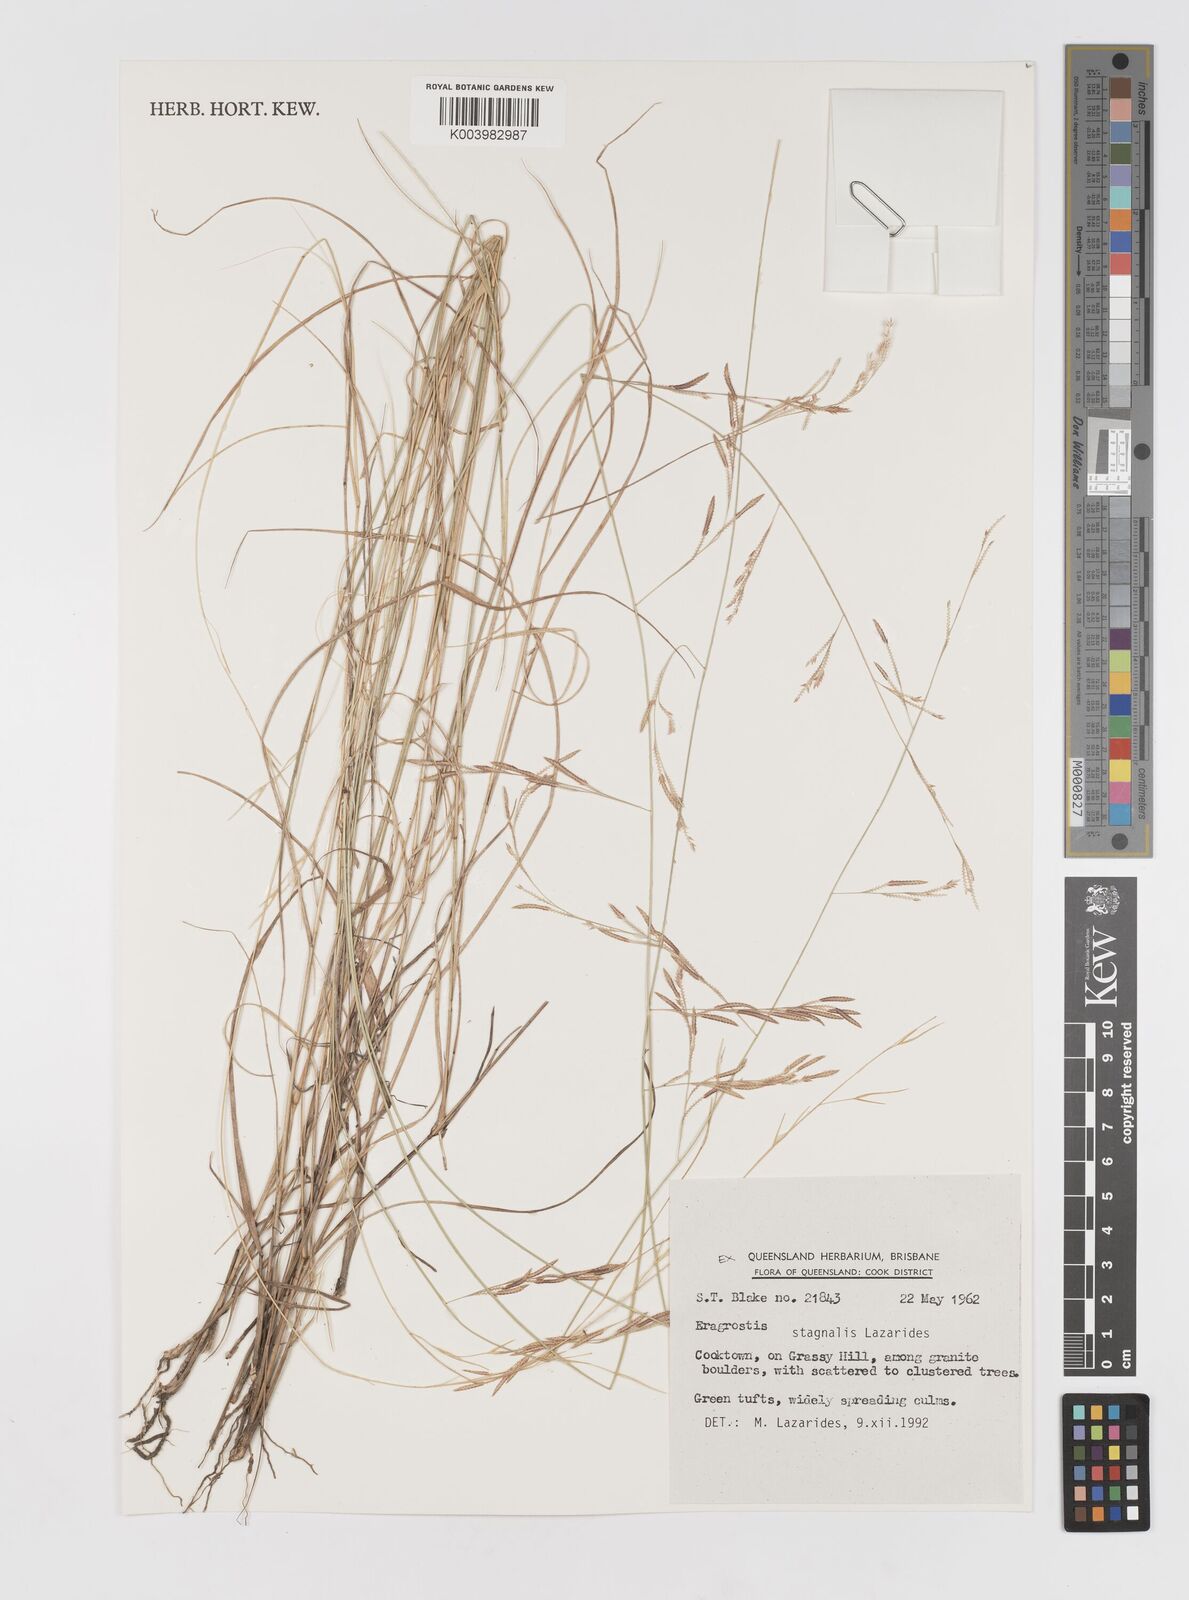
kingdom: Plantae
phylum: Tracheophyta
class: Liliopsida
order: Poales
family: Poaceae
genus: Eragrostis
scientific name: Eragrostis stagnalis
